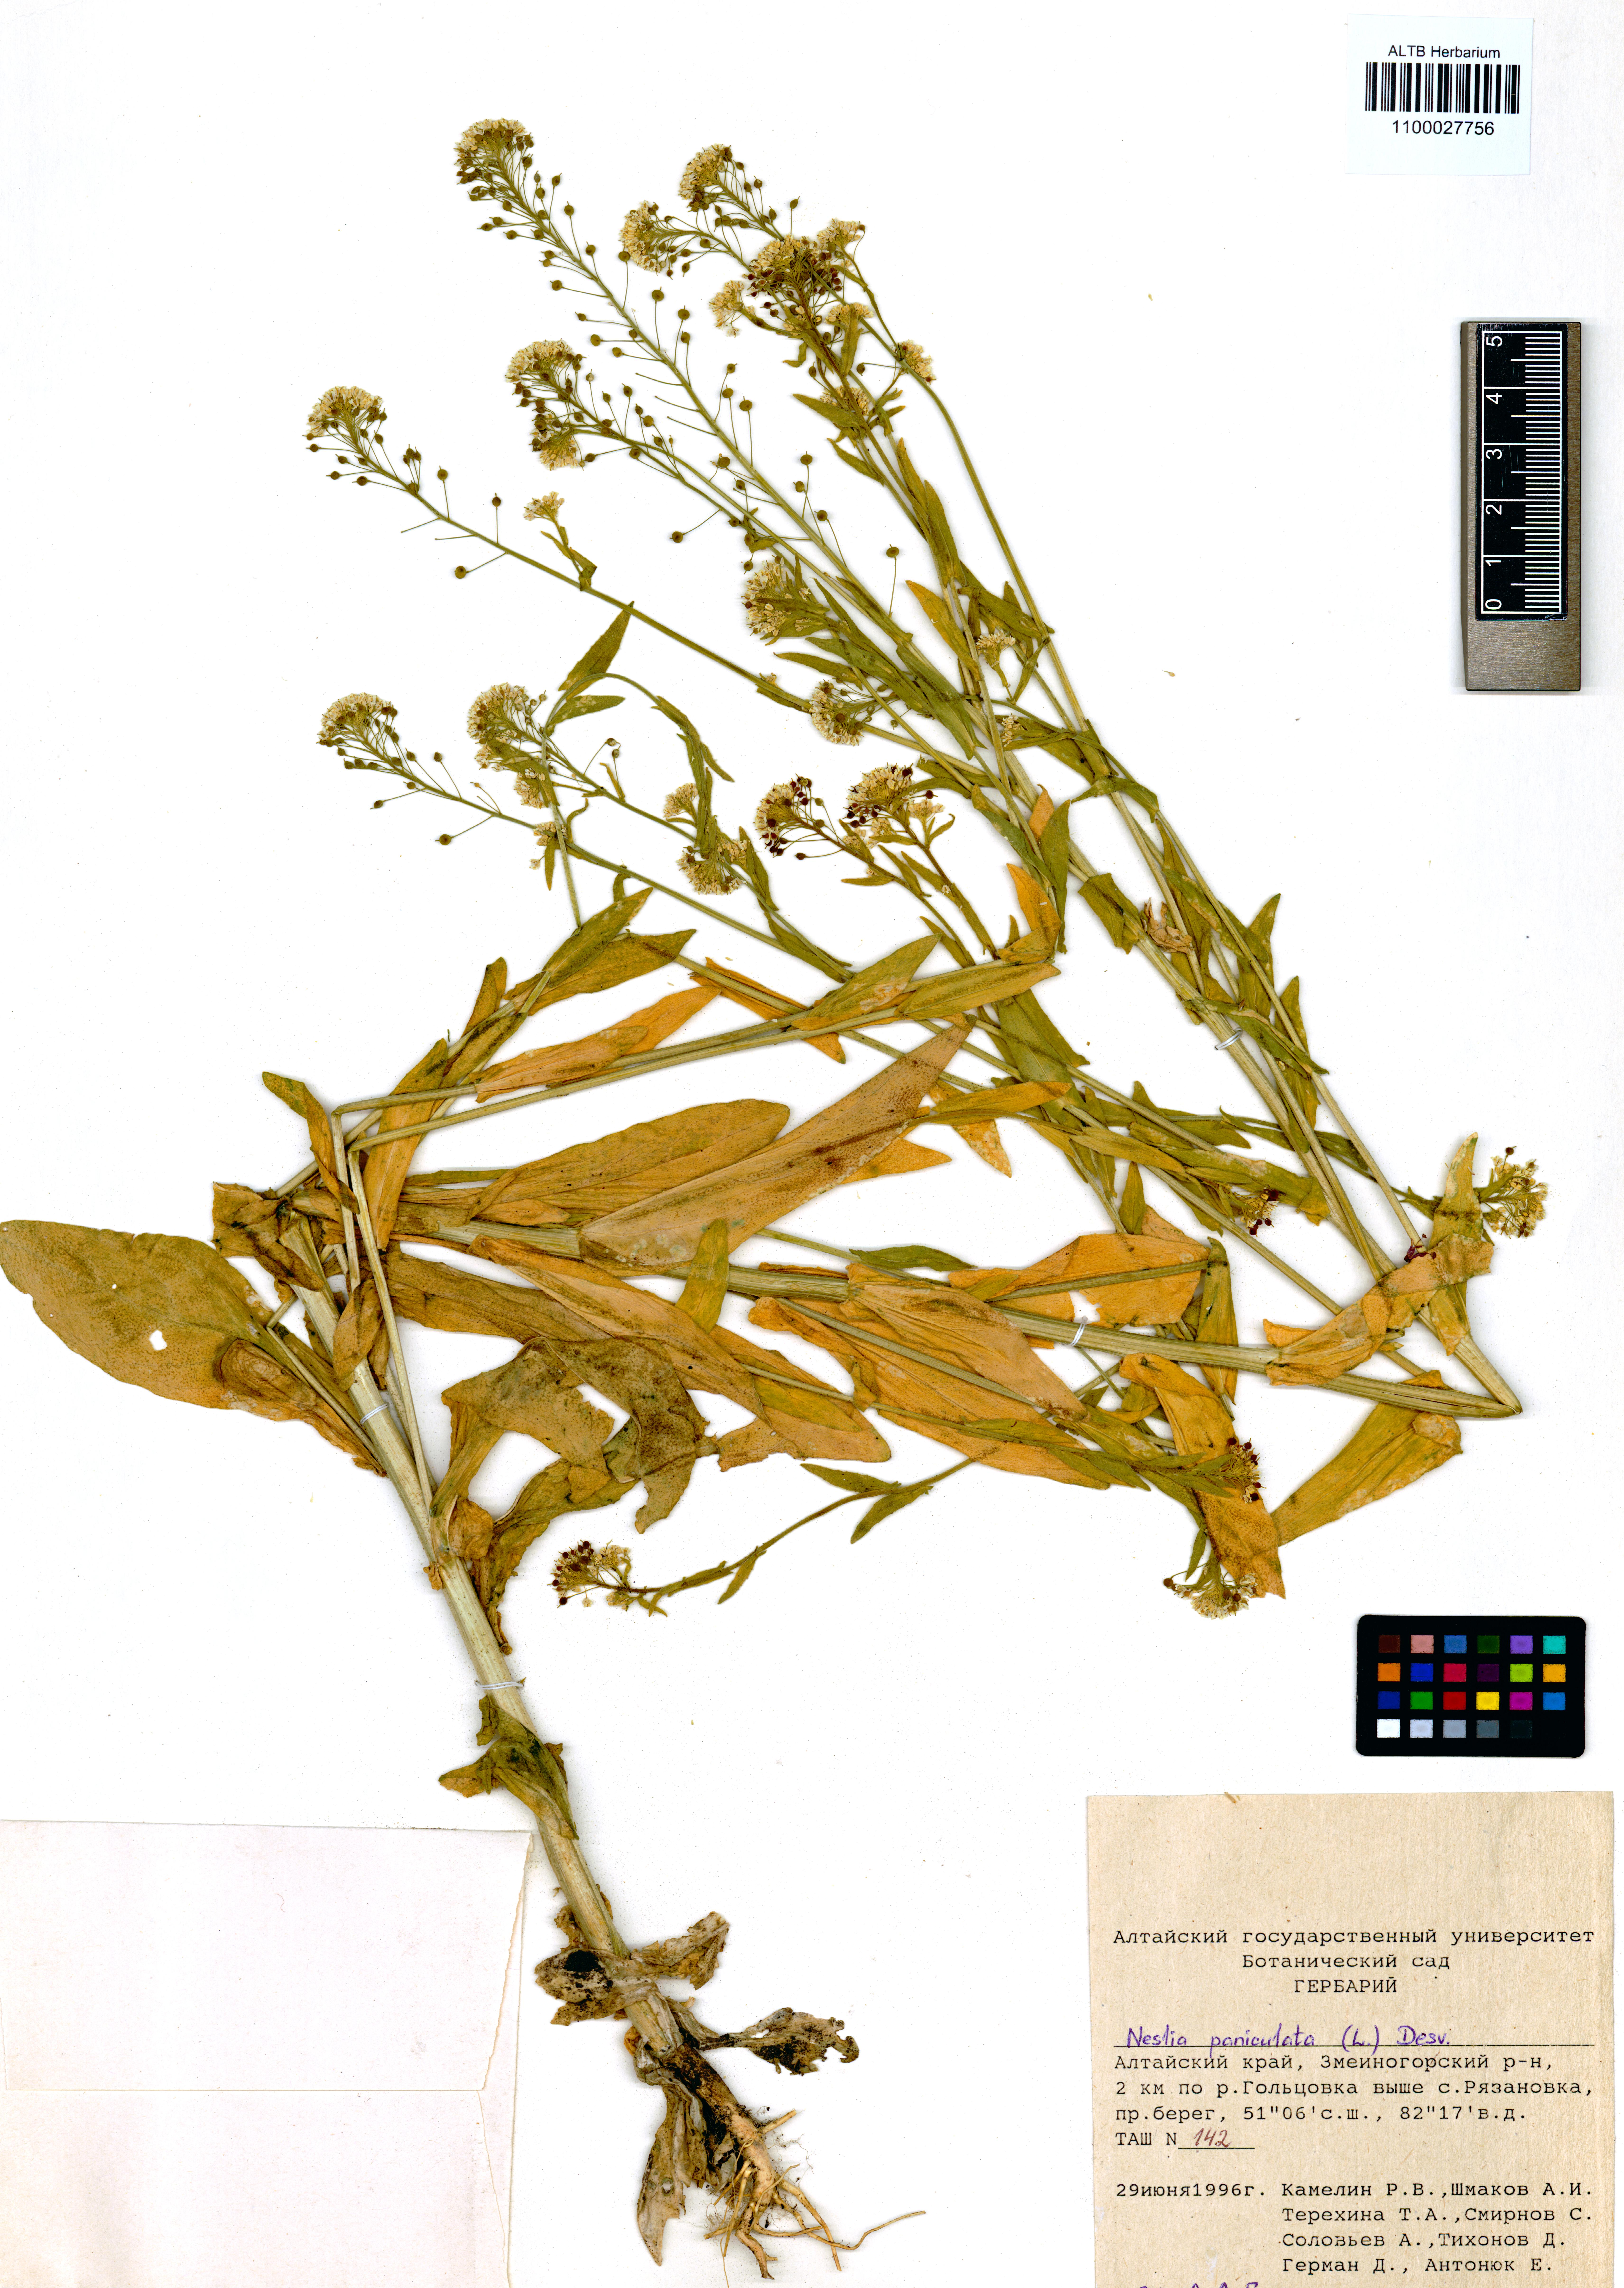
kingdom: Plantae
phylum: Tracheophyta
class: Magnoliopsida
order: Brassicales
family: Brassicaceae
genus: Neslia
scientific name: Neslia paniculata
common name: Ball mustard
